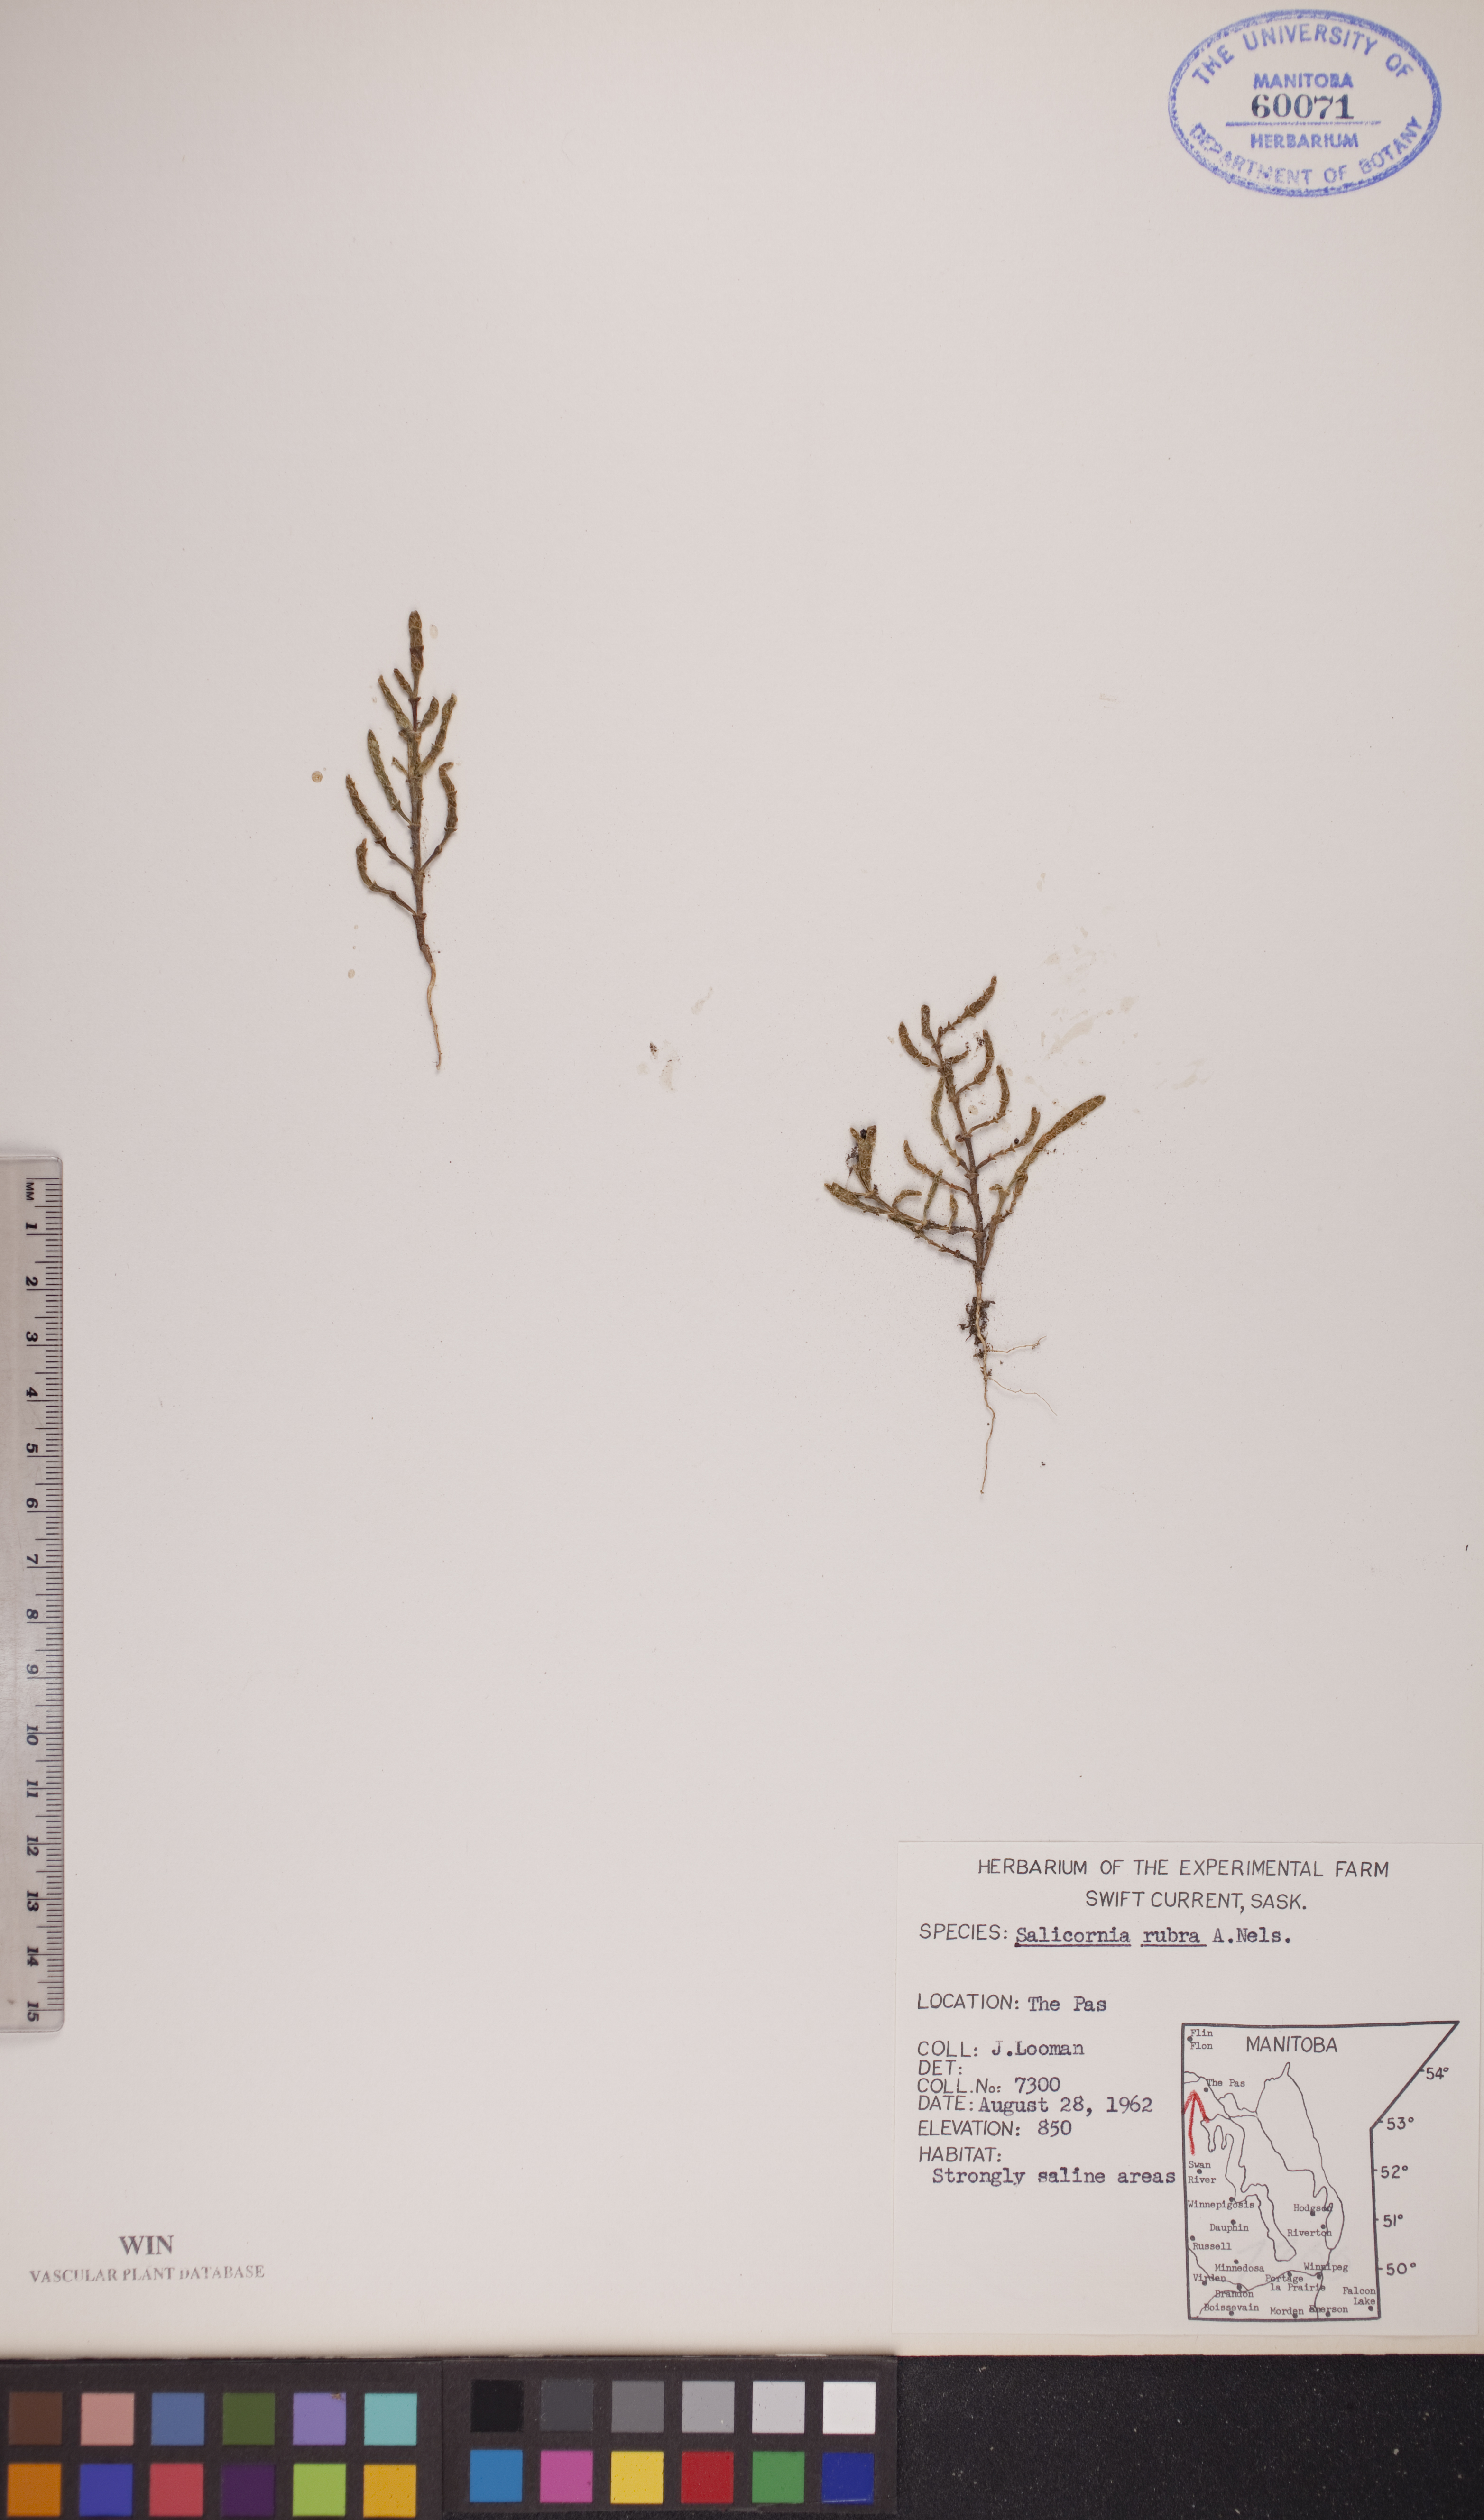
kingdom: Plantae
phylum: Tracheophyta
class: Magnoliopsida
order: Caryophyllales
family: Amaranthaceae
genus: Salicornia
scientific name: Salicornia rubra
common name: Red glasswort
